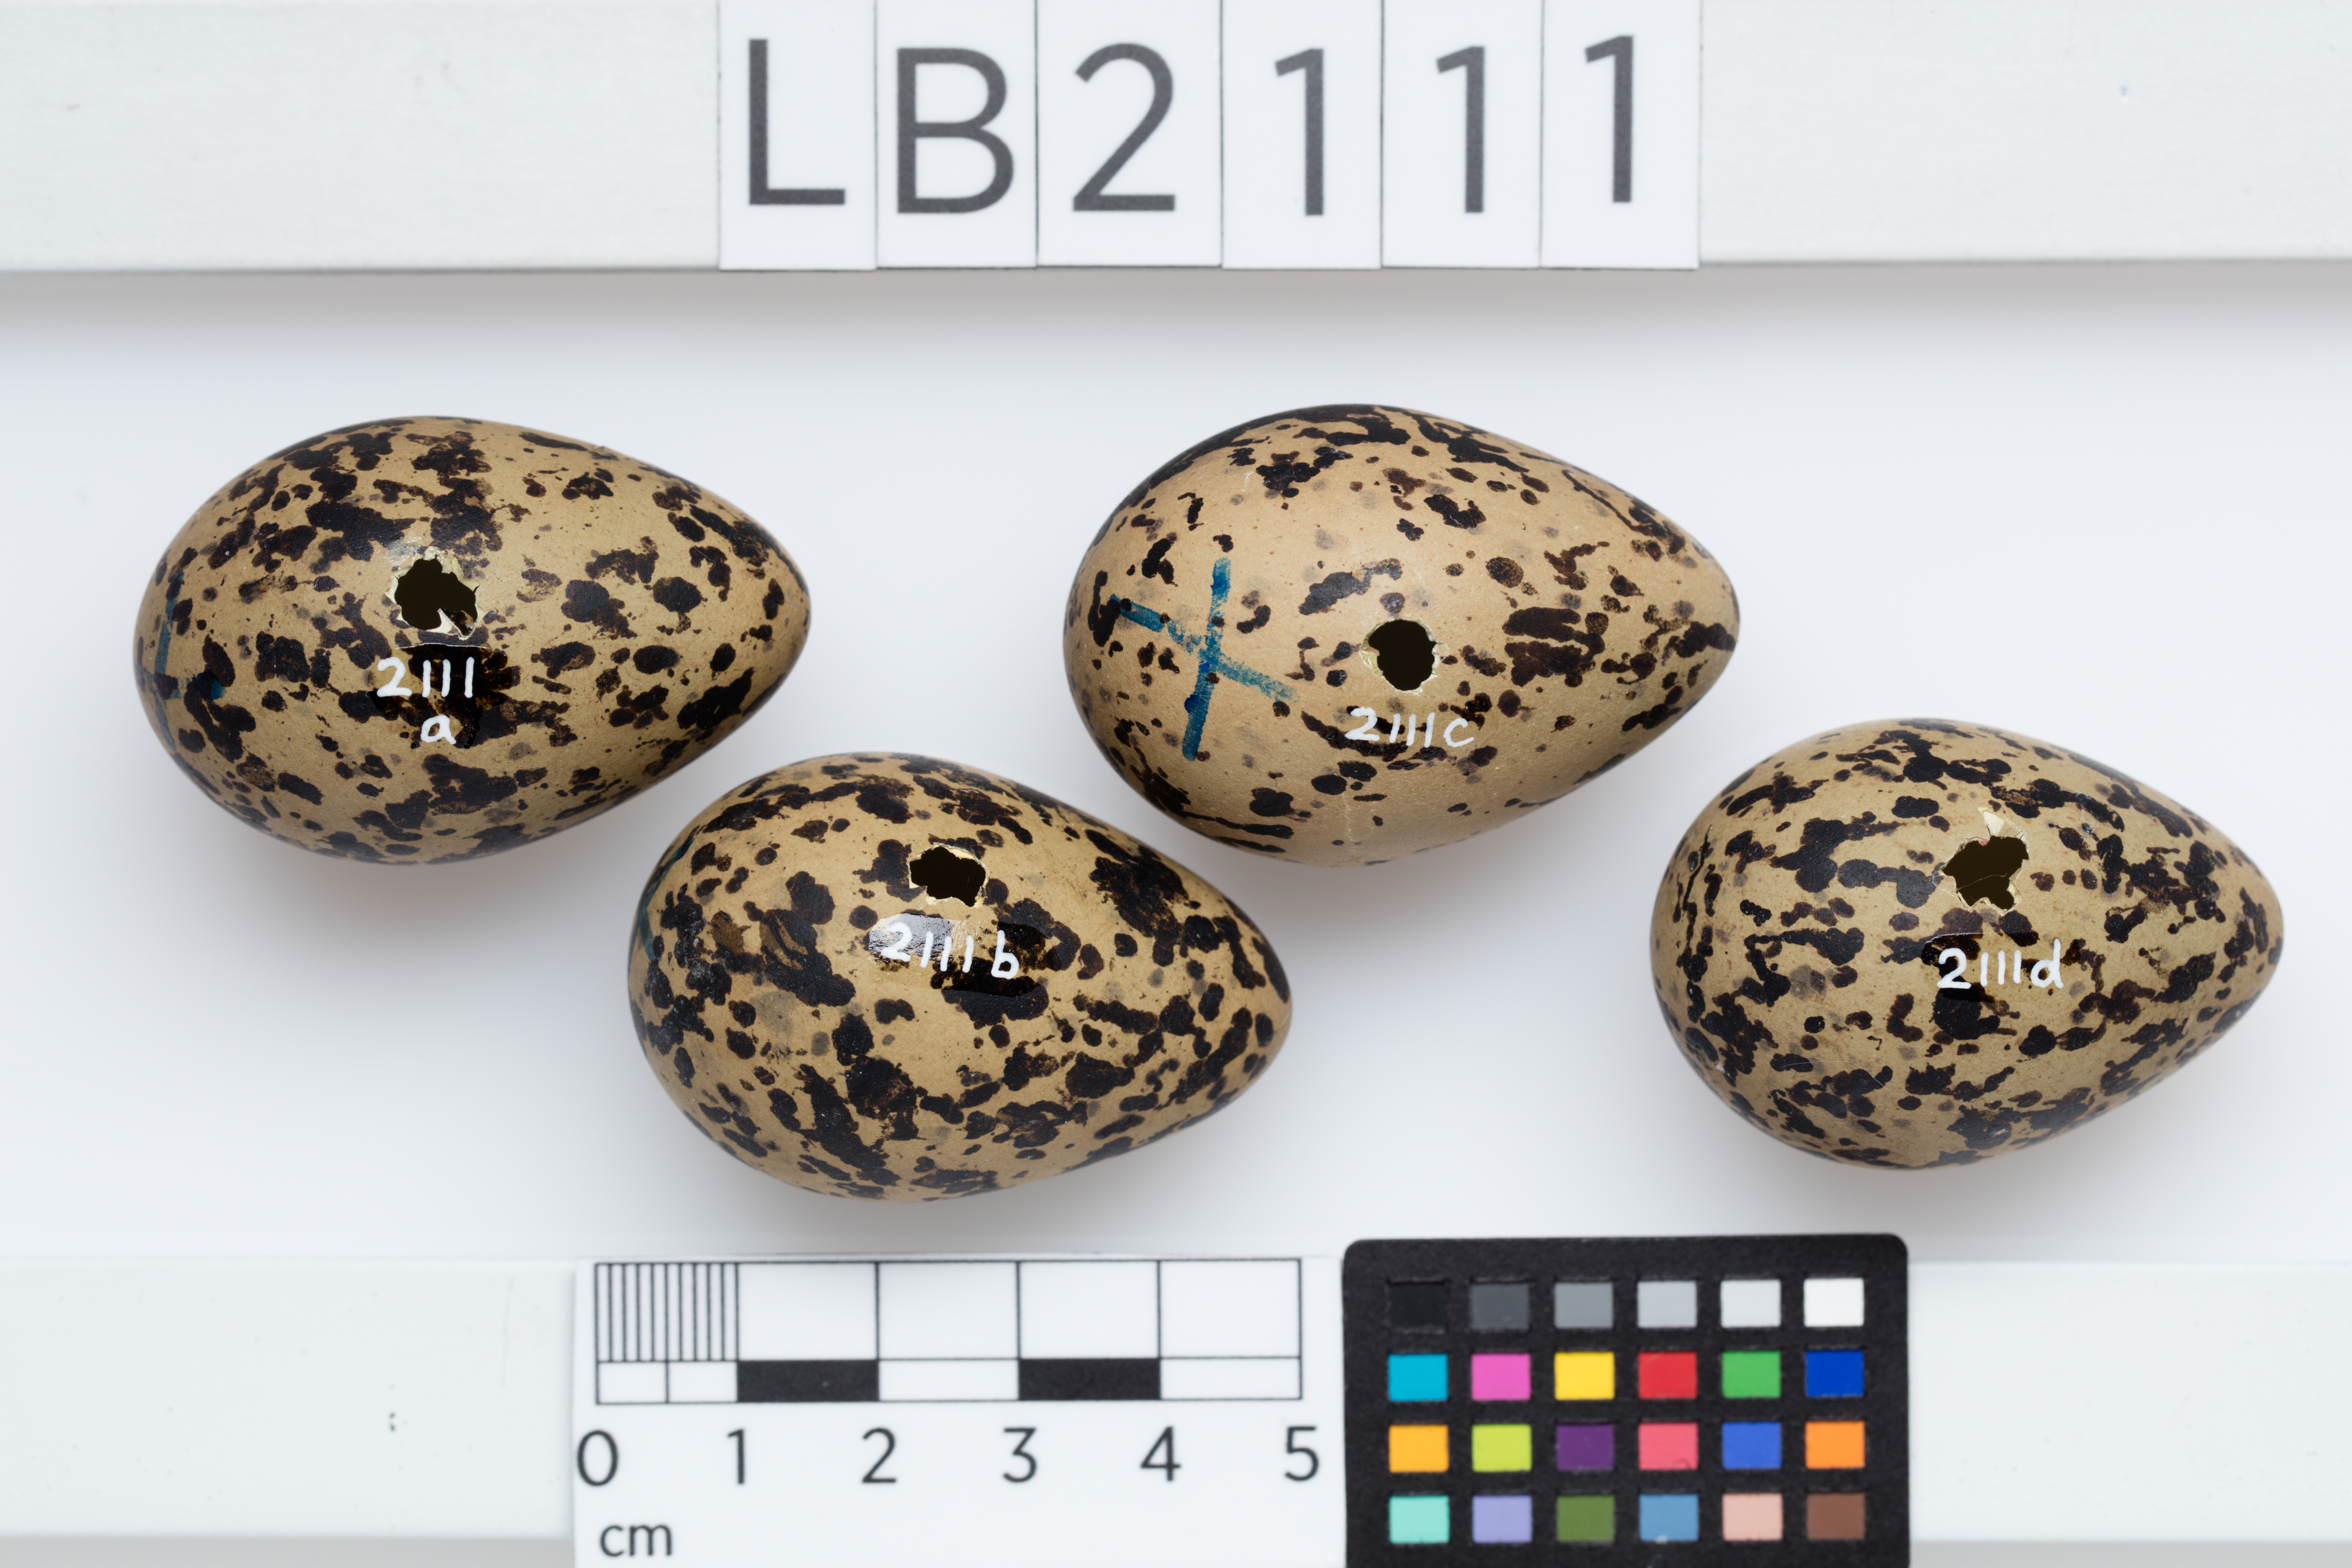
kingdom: Animalia
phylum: Chordata
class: Aves
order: Charadriiformes
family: Recurvirostridae
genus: Himantopus
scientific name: Himantopus himantopus
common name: Black-winged stilt
